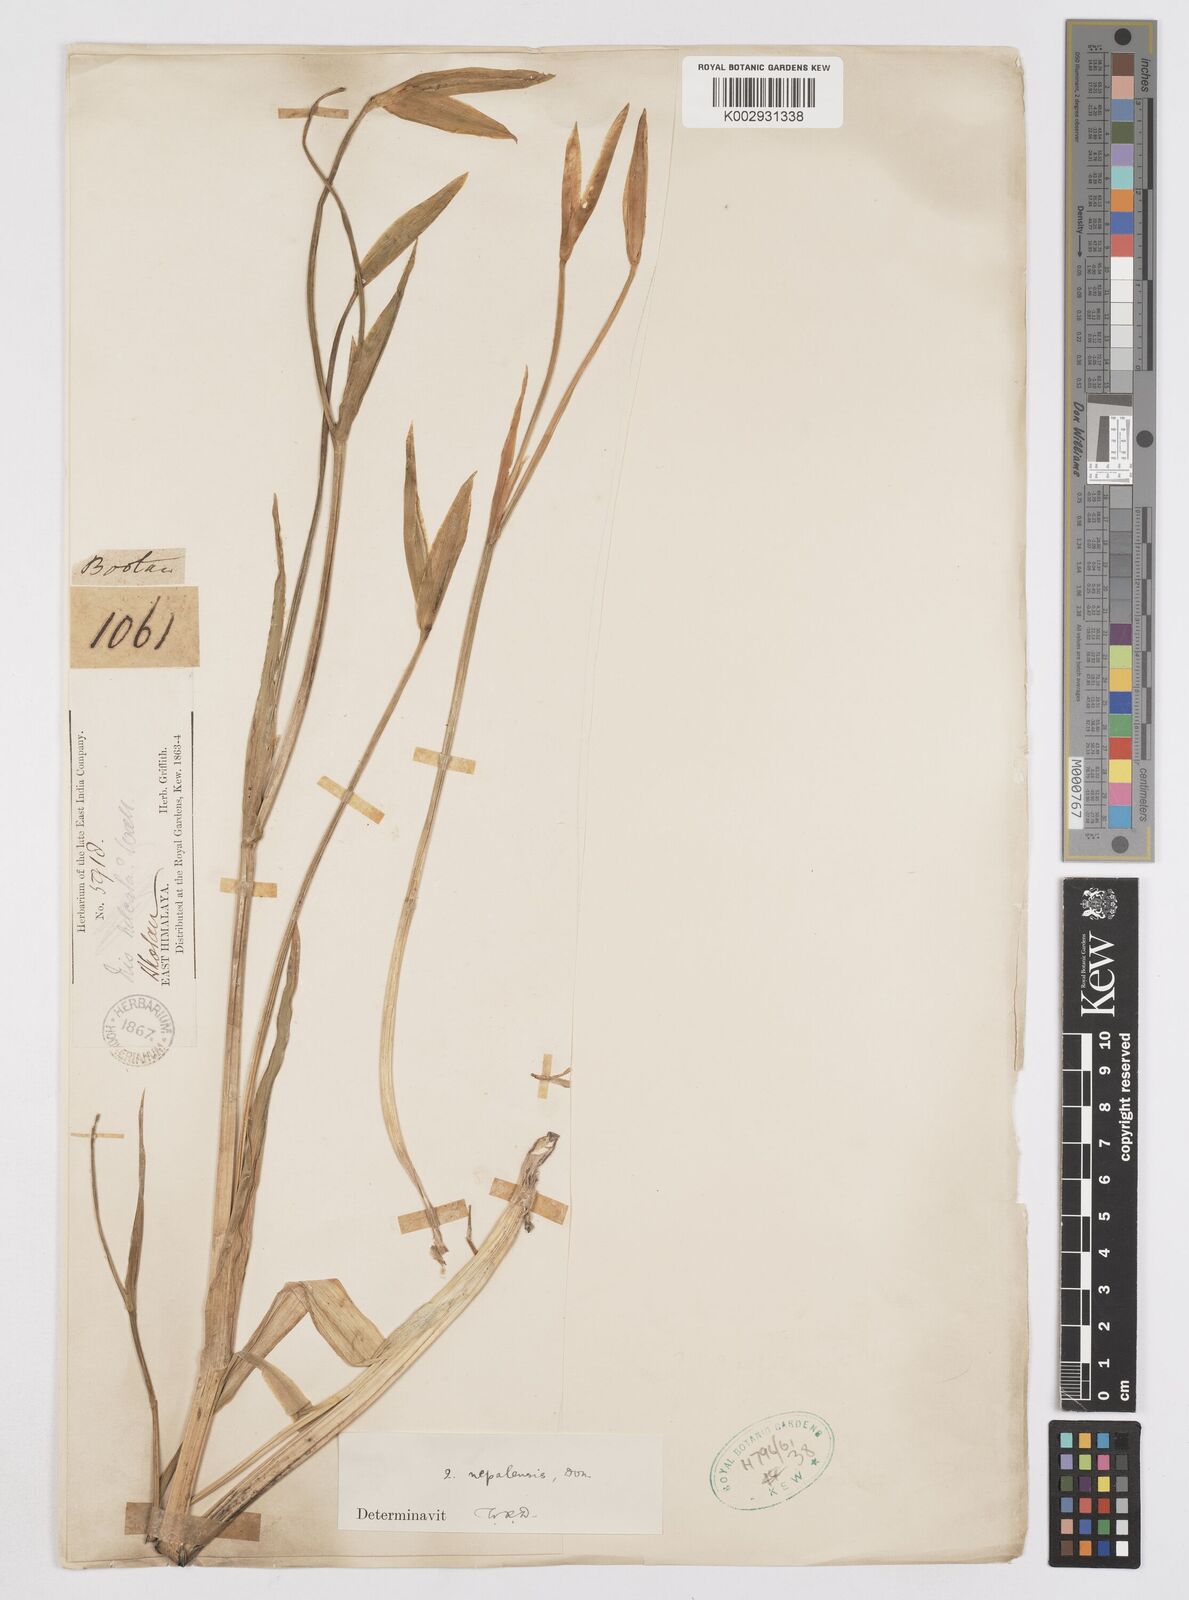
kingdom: Plantae
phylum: Tracheophyta
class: Liliopsida
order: Asparagales
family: Iridaceae
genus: Iris
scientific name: Iris decora
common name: Nepal iris
